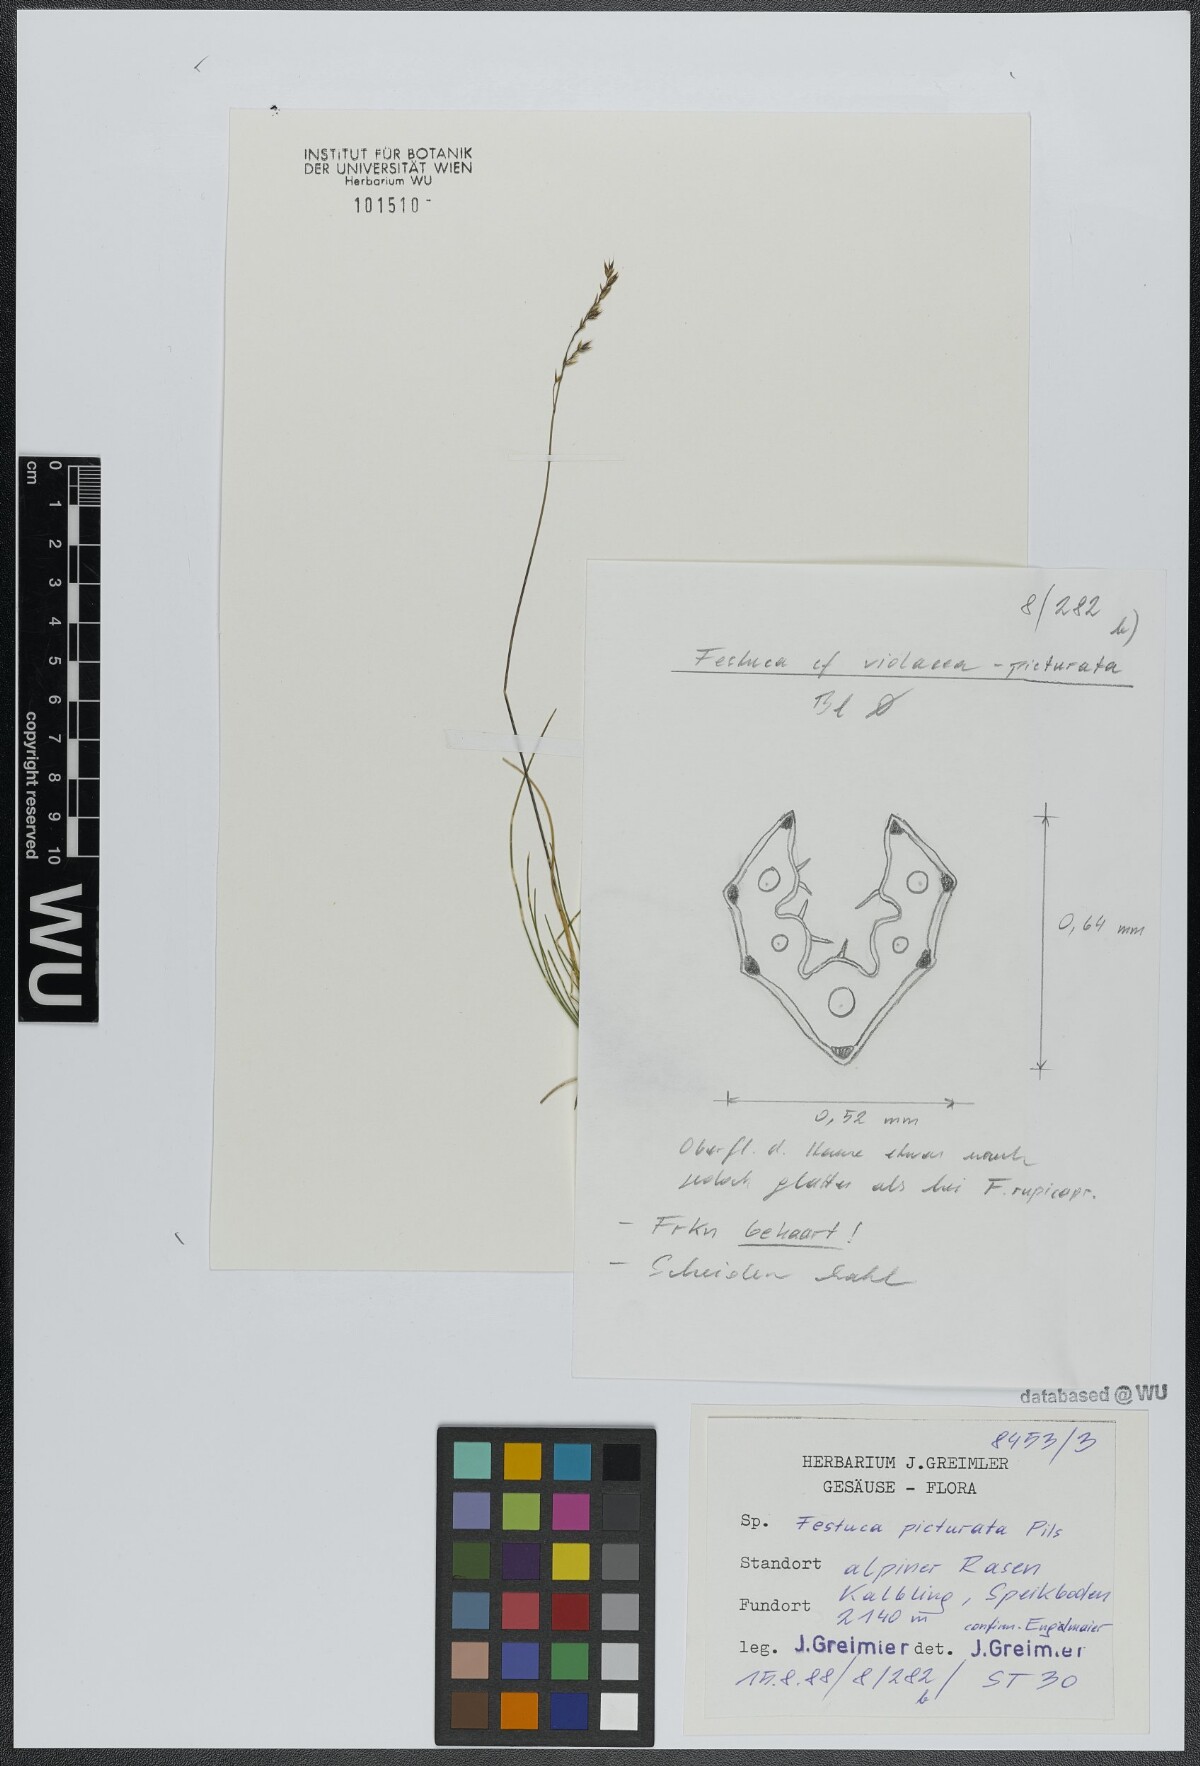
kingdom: Plantae
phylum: Tracheophyta
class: Liliopsida
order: Poales
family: Poaceae
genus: Festuca
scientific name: Festuca picturata
